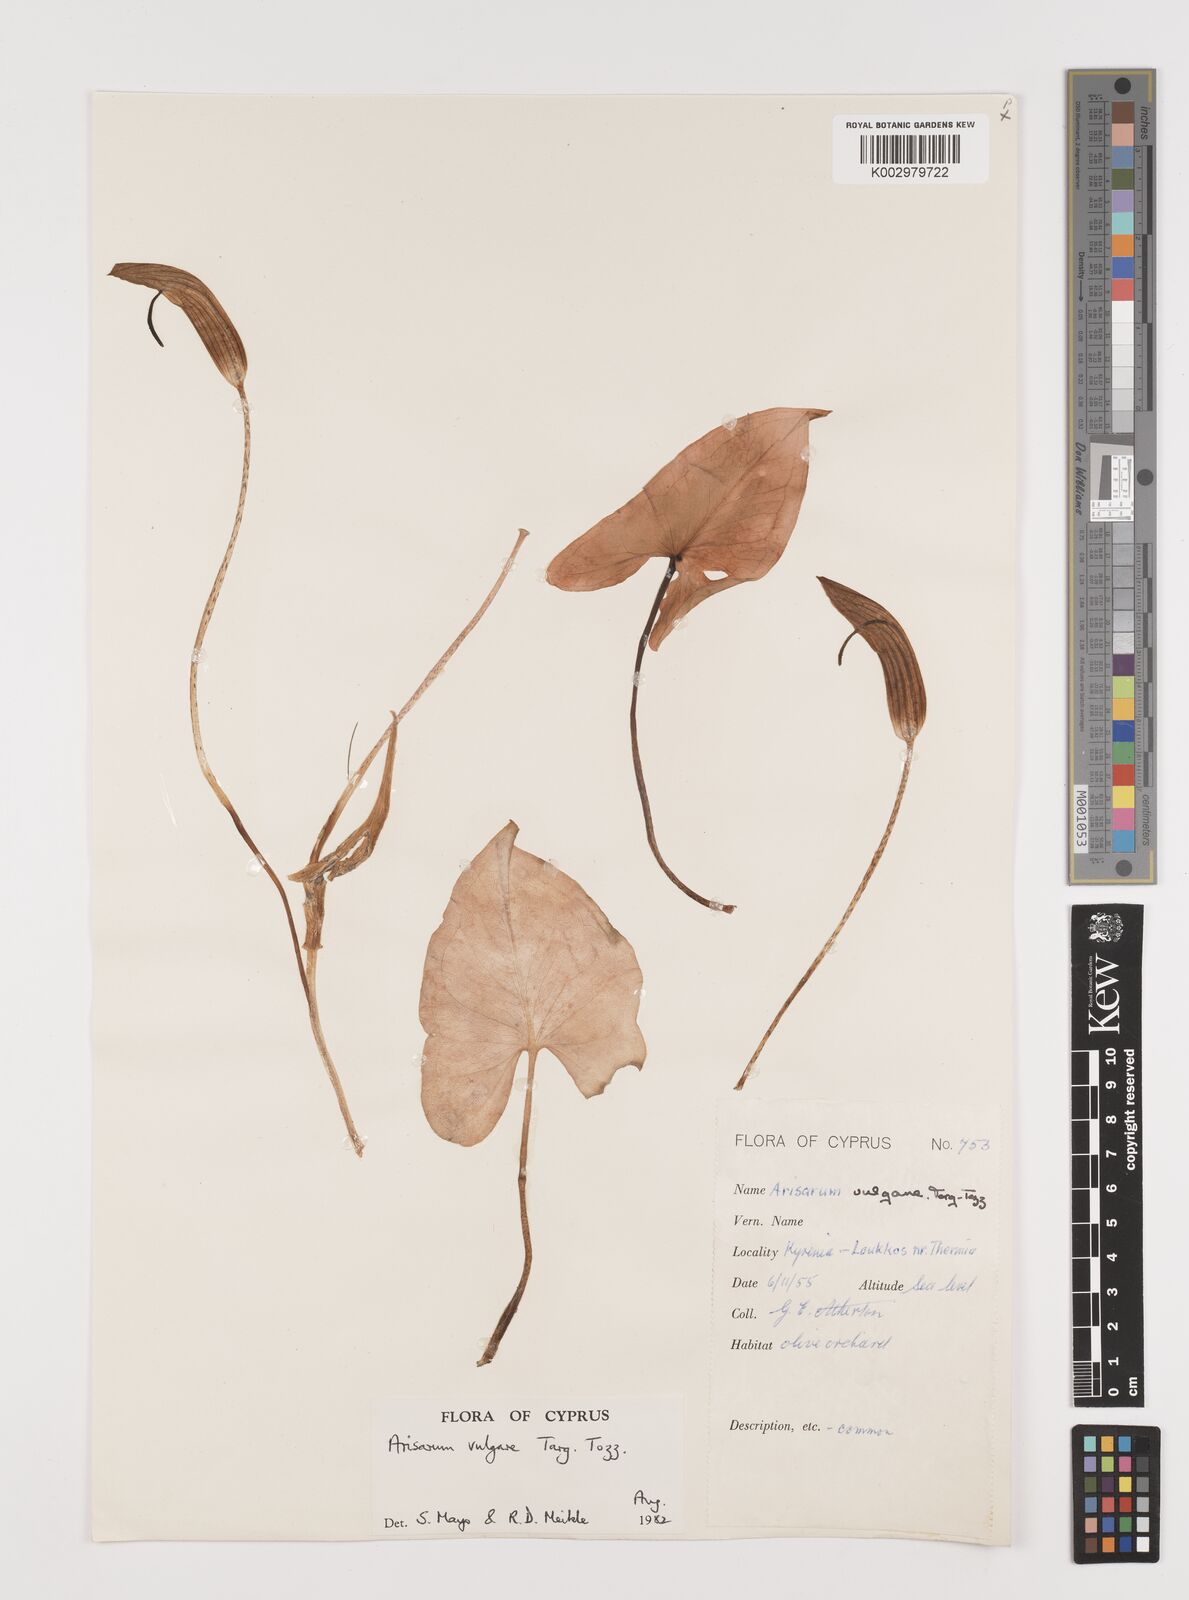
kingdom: Plantae
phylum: Tracheophyta
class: Liliopsida
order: Alismatales
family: Araceae
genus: Arisarum
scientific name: Arisarum vulgare
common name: Common arisarum
